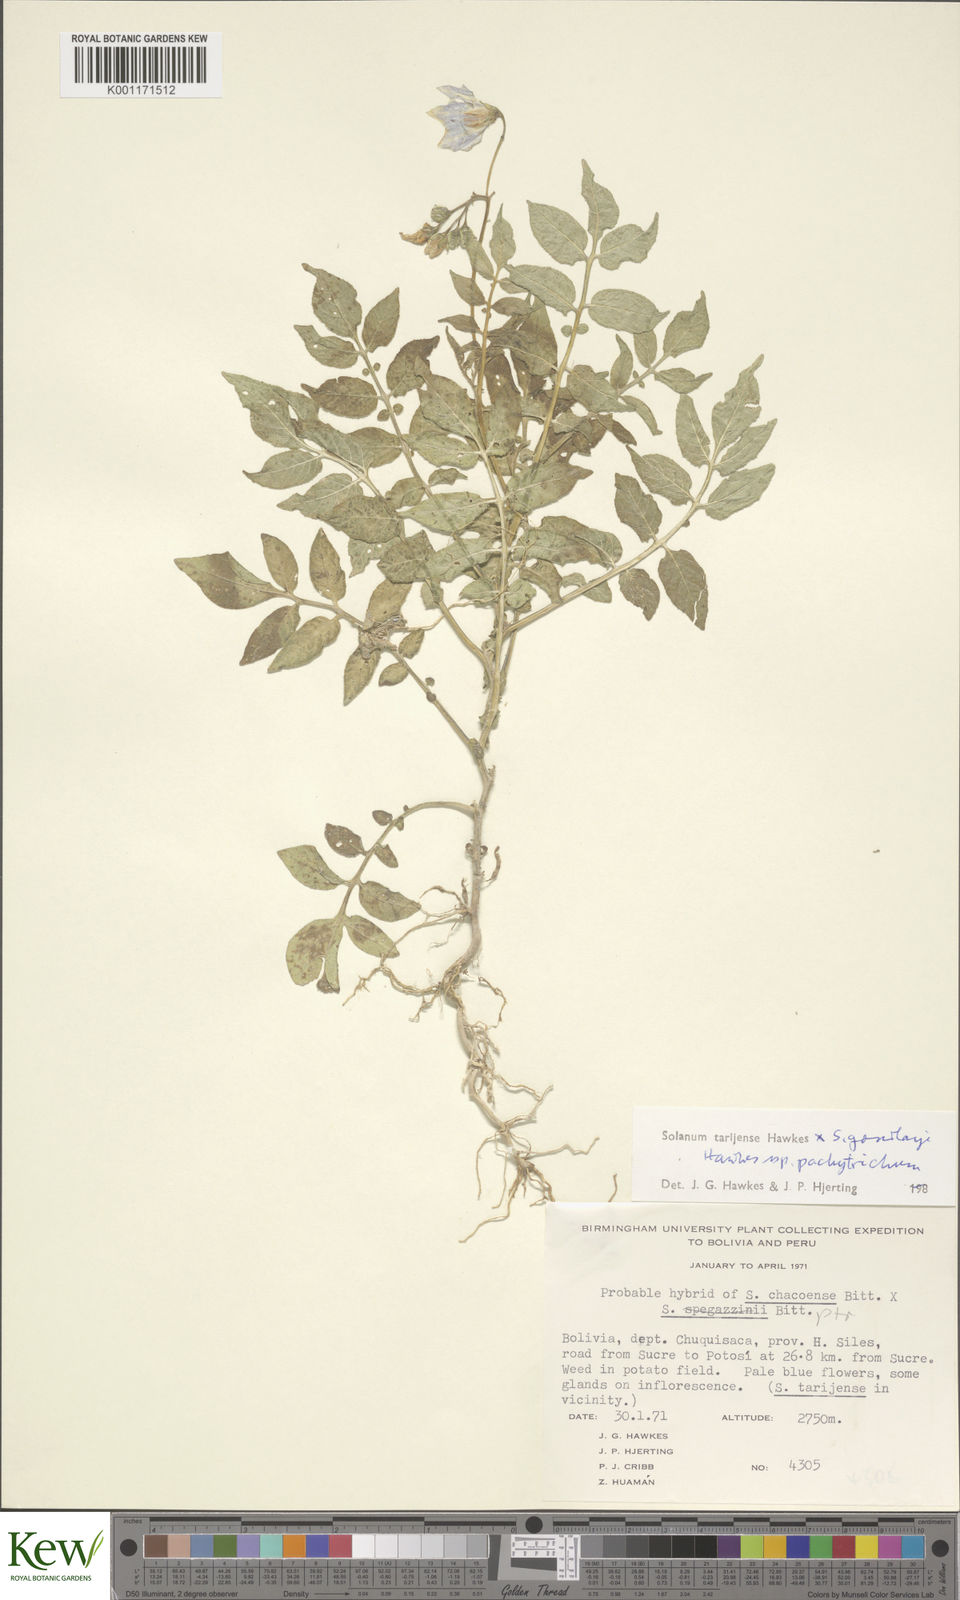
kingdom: Plantae
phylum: Tracheophyta
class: Magnoliopsida
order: Solanales
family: Solanaceae
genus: Solanum
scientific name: Solanum tarijense
